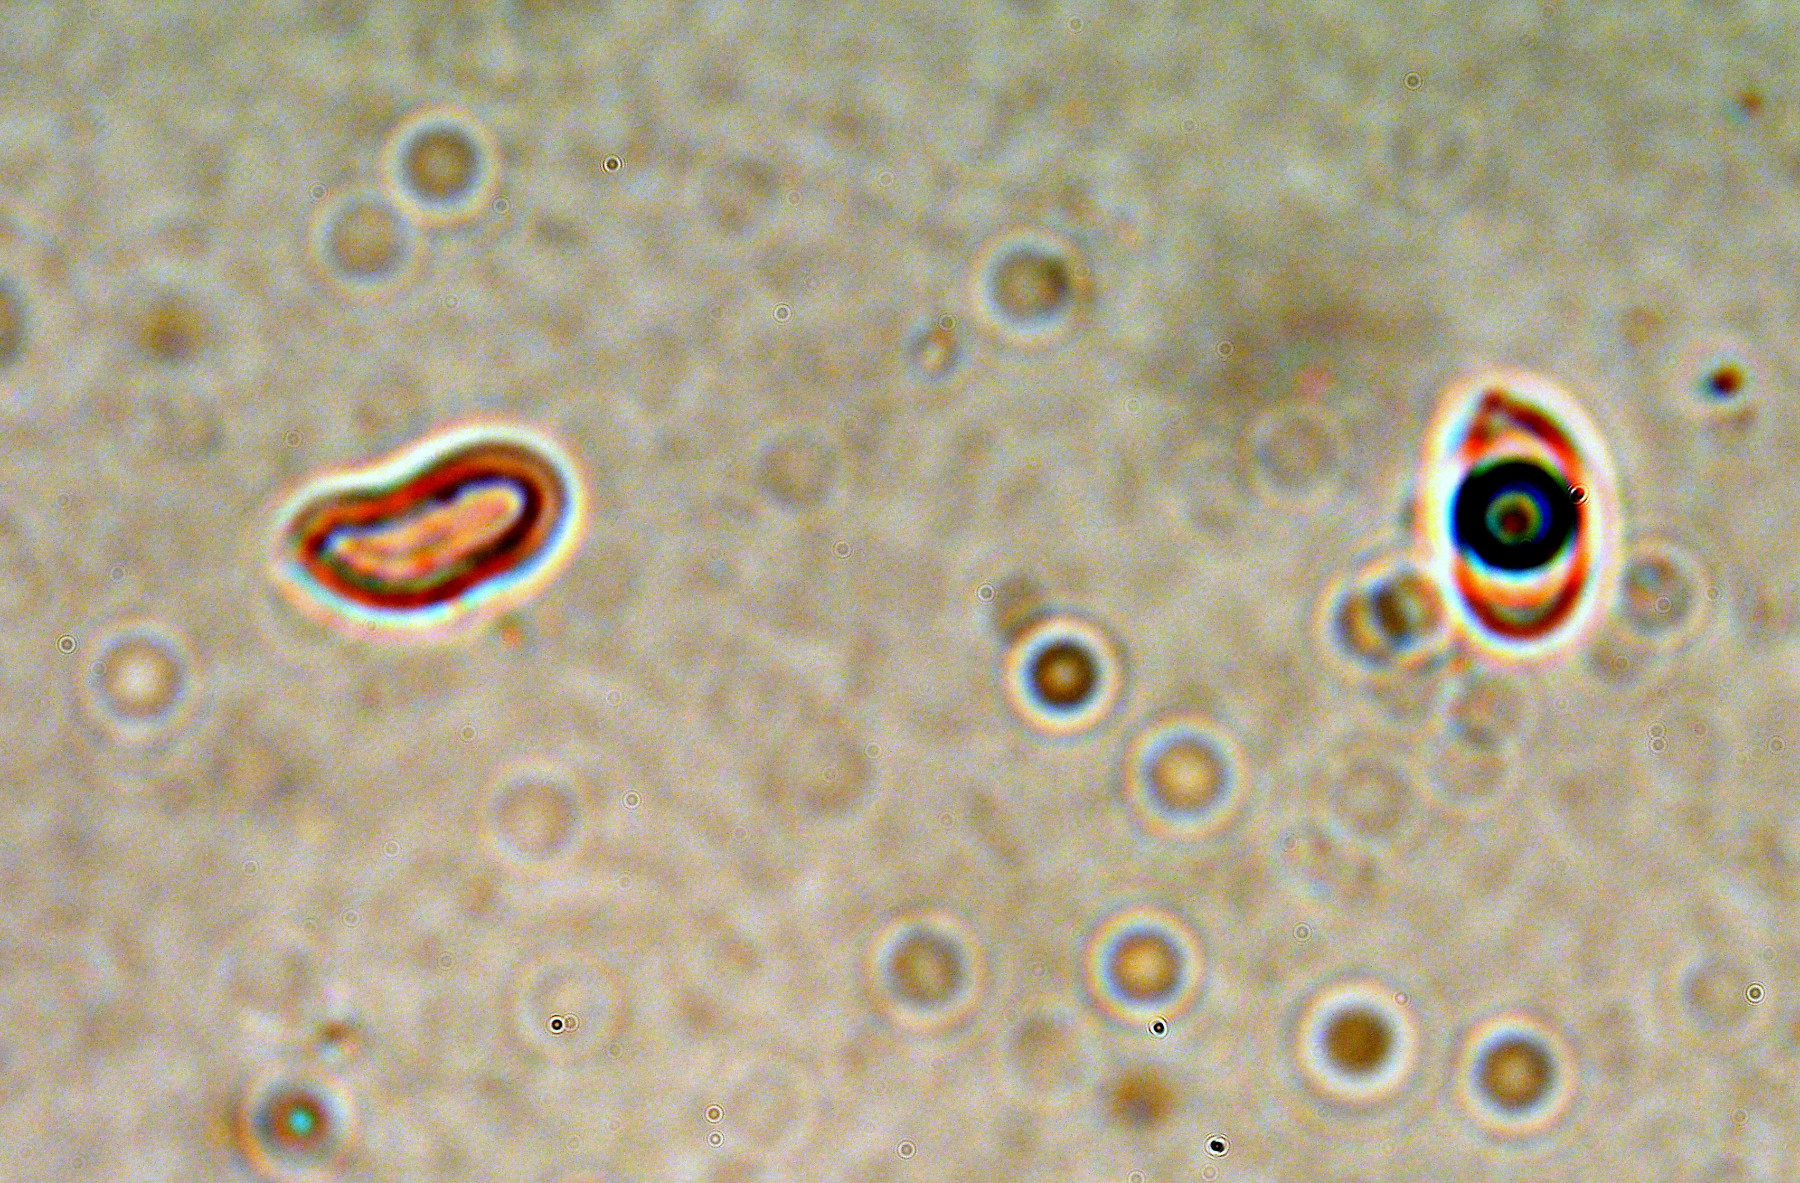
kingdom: Fungi
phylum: Basidiomycota
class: Agaricomycetes
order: Polyporales
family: Phanerochaetaceae
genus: Phanerochaete
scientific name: Phanerochaete sordida
